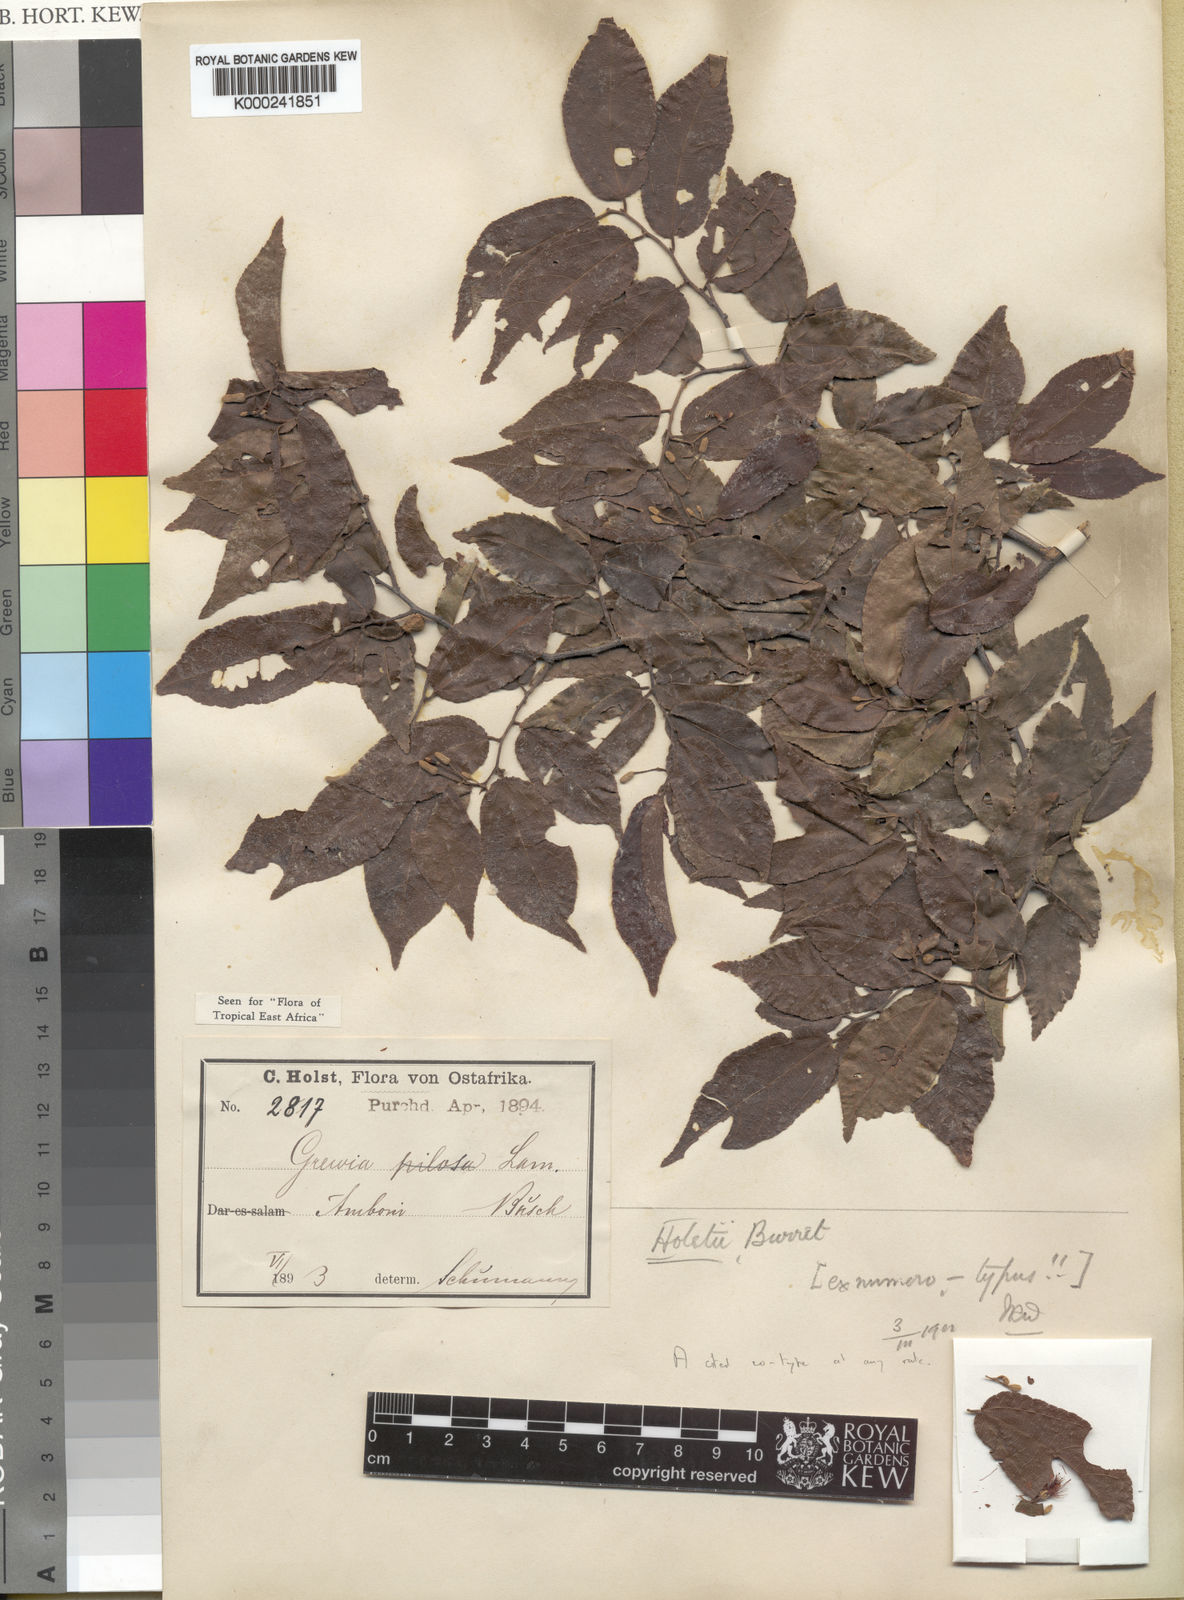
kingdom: Plantae
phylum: Tracheophyta
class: Magnoliopsida
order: Malvales
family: Malvaceae
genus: Grewia
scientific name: Grewia holstii
